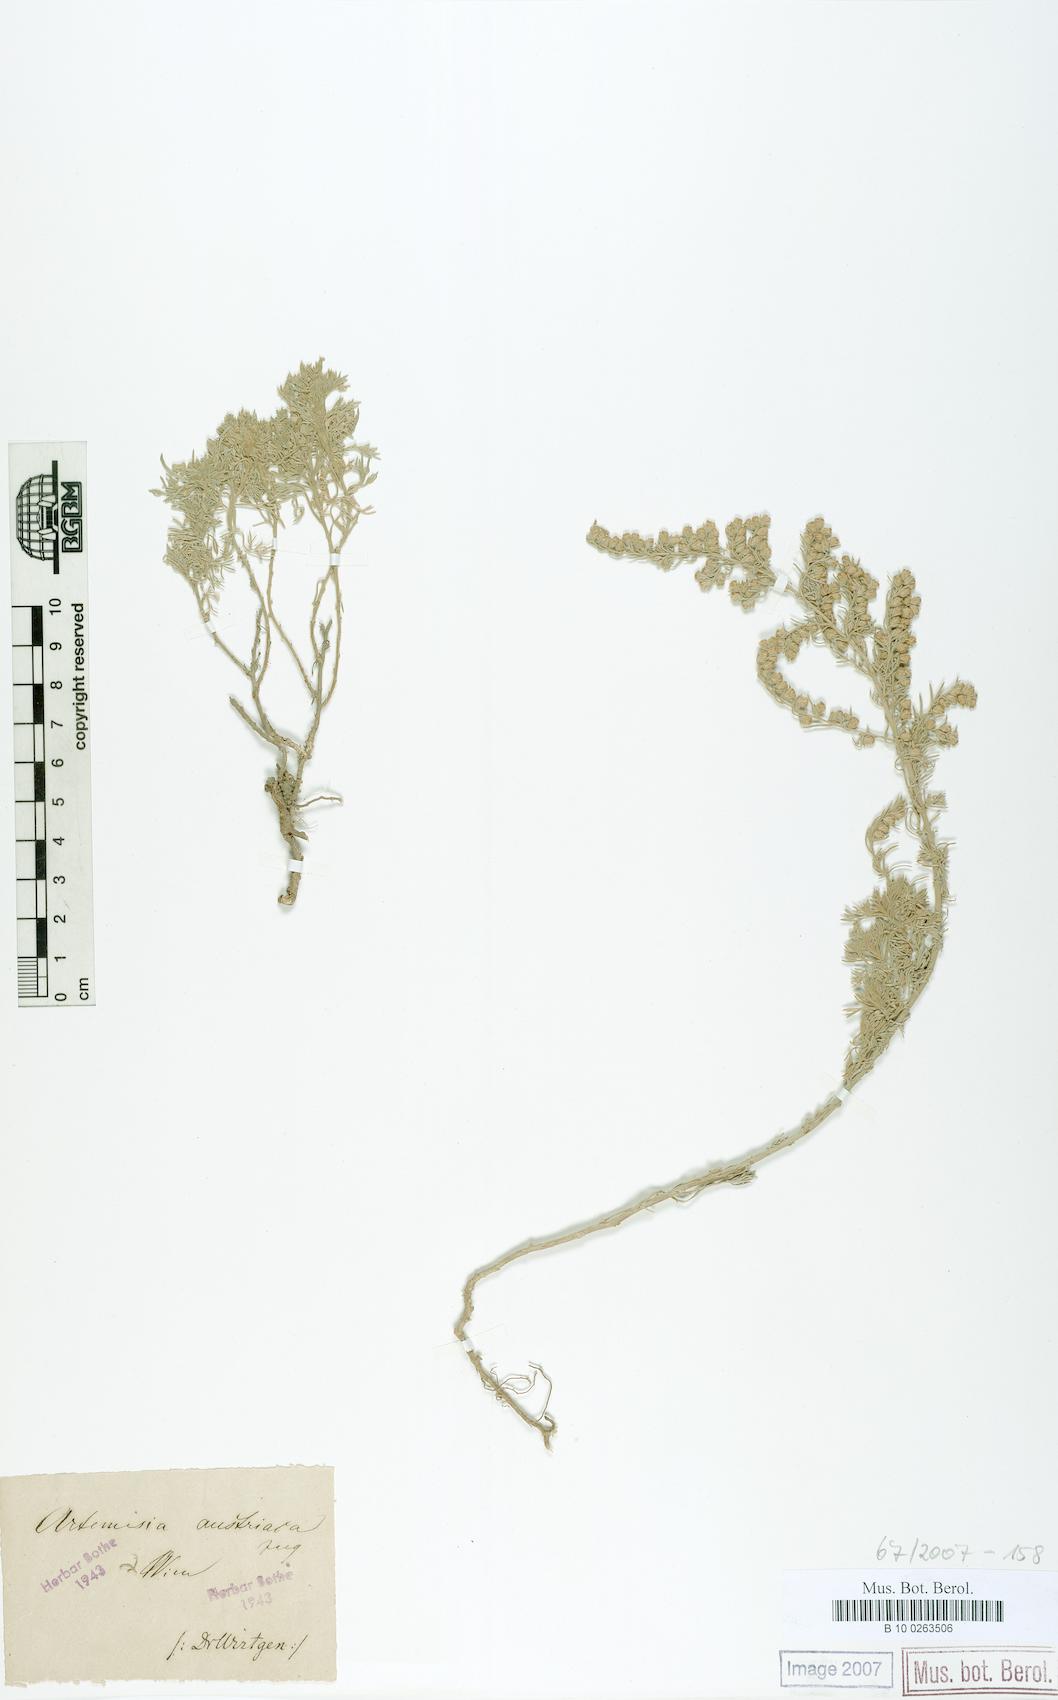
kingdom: Plantae
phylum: Tracheophyta
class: Magnoliopsida
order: Asterales
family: Asteraceae
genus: Artemisia
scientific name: Artemisia austriaca
